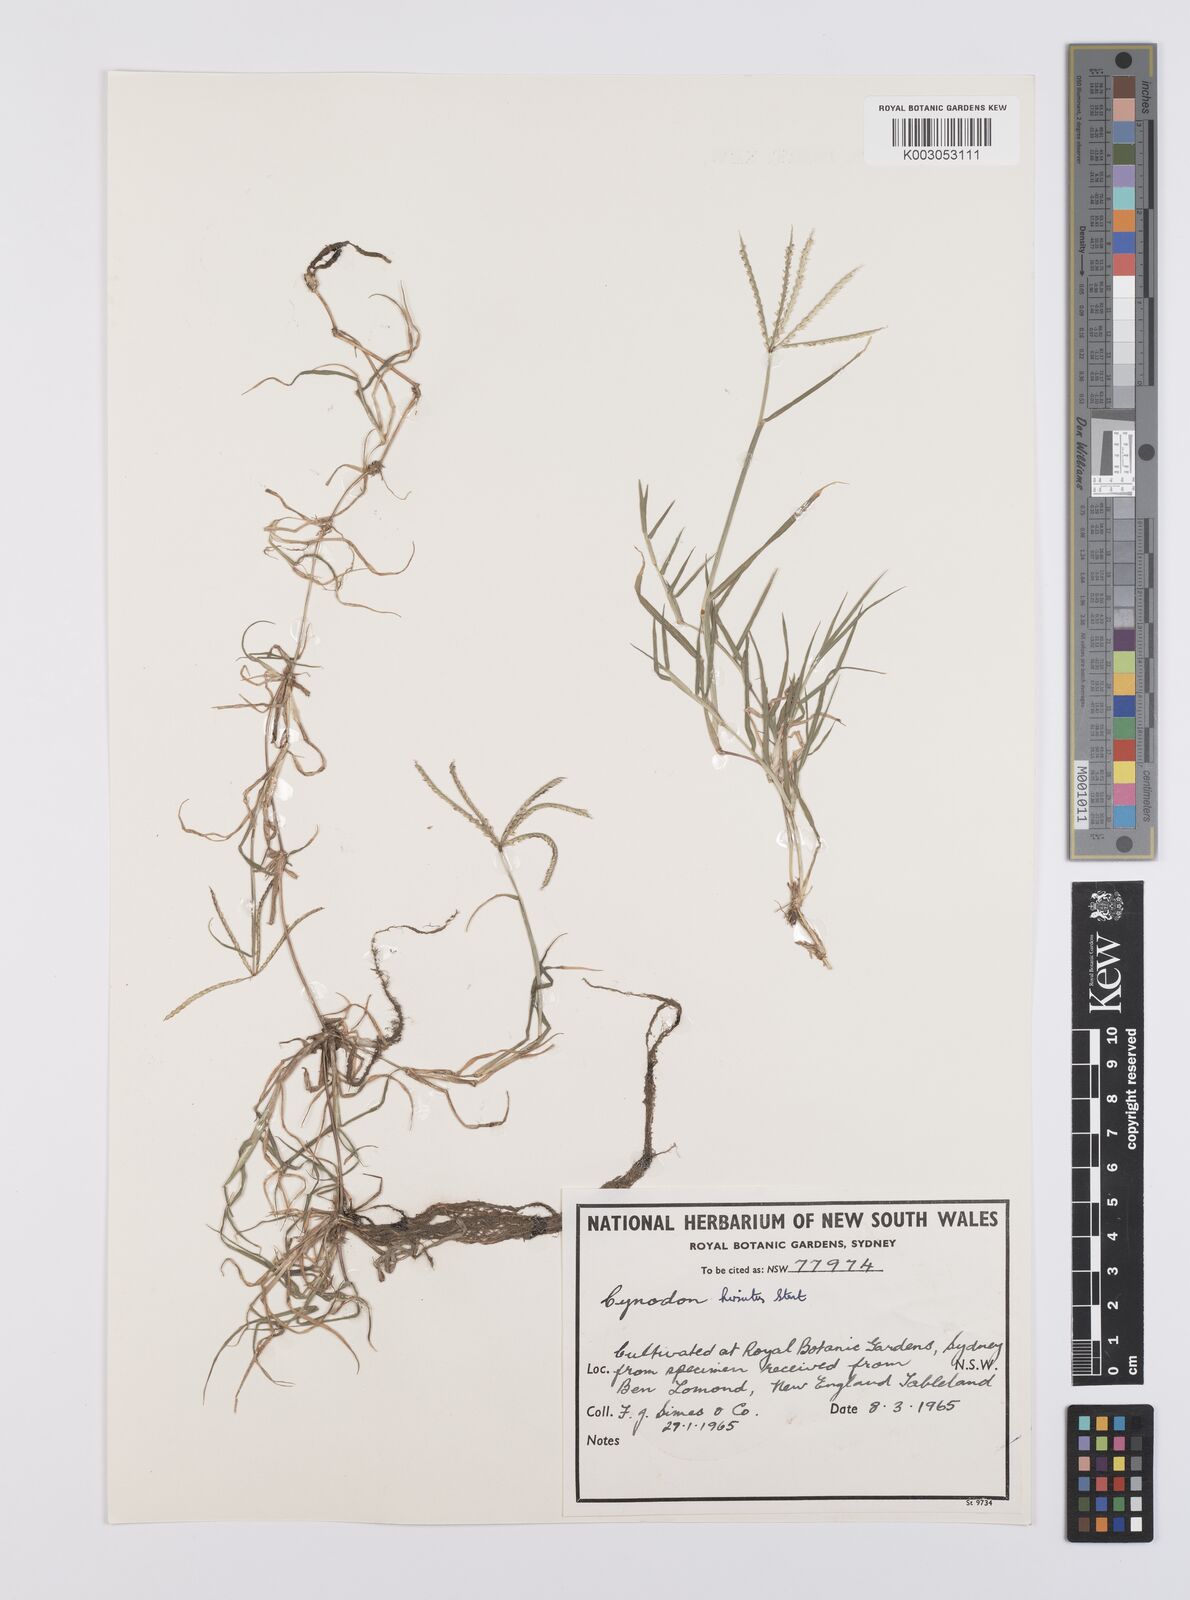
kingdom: Plantae
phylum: Tracheophyta
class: Liliopsida
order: Poales
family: Poaceae
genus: Cynodon
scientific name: Cynodon incompletus
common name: African bermuda-grass
